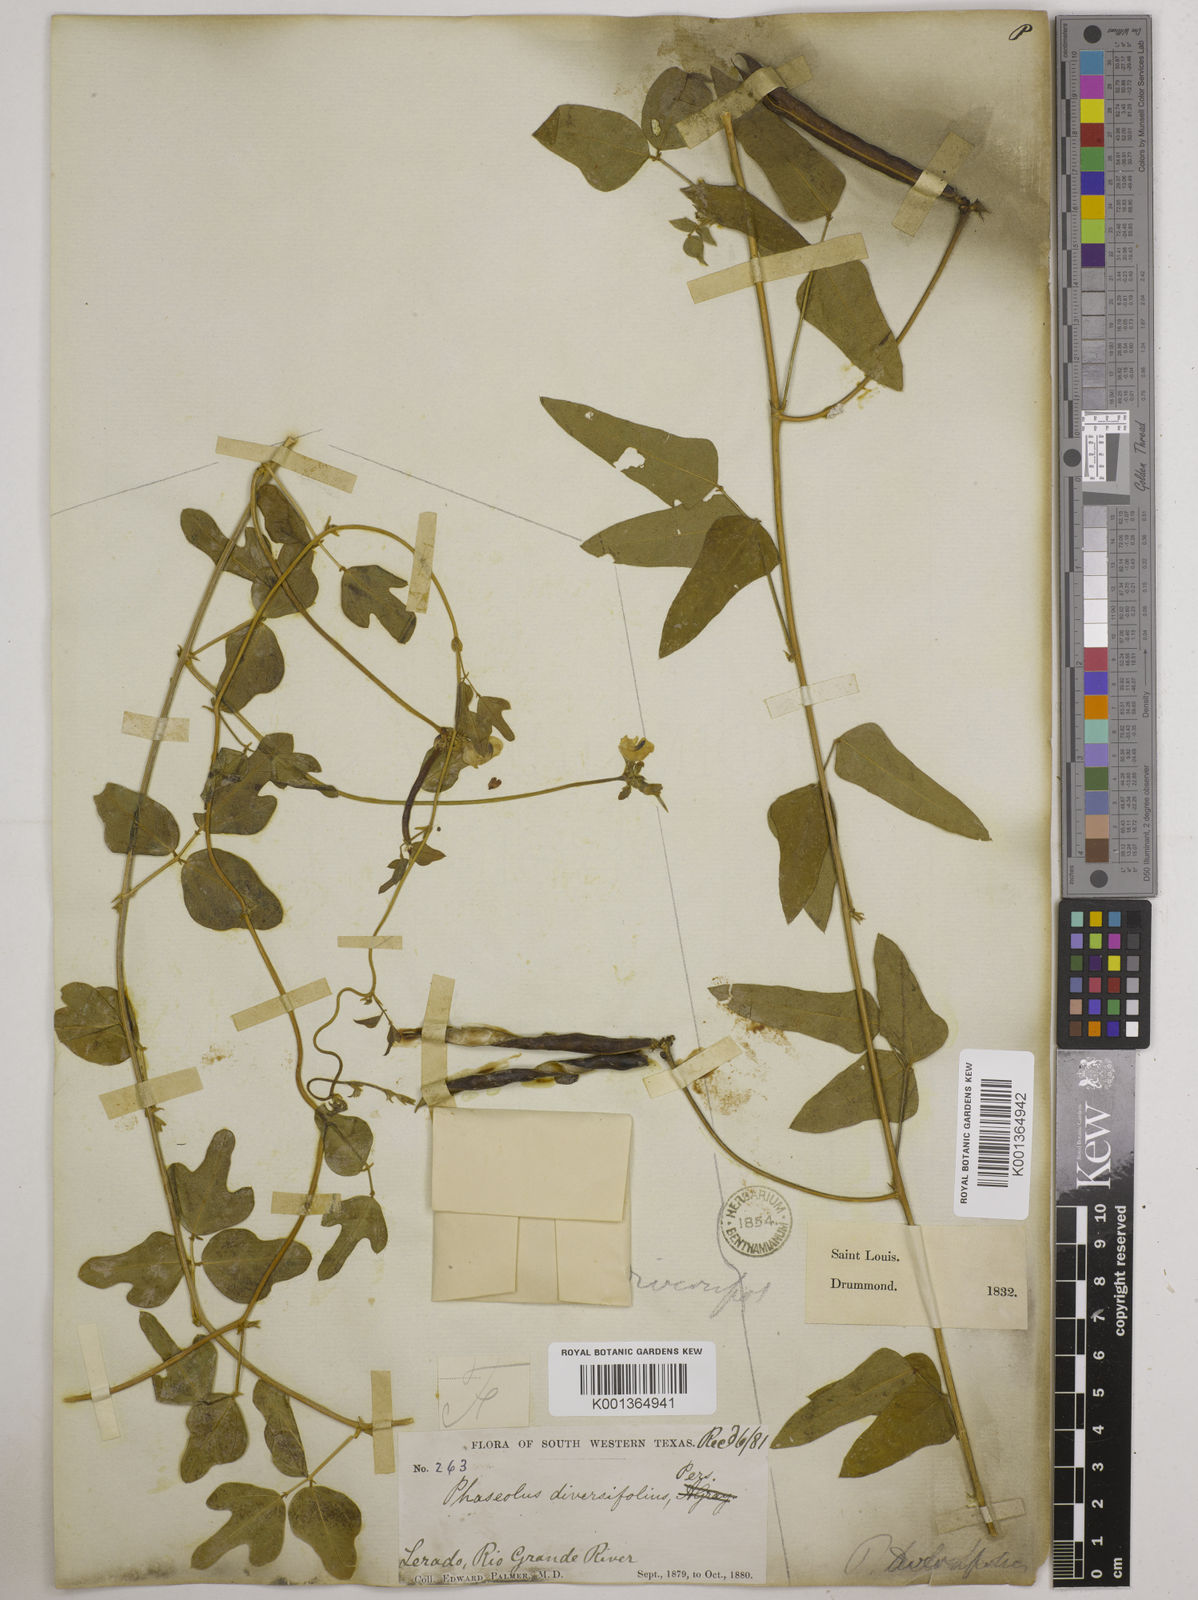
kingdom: Plantae
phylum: Tracheophyta
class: Magnoliopsida
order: Fabales
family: Fabaceae
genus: Strophostyles
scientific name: Strophostyles
